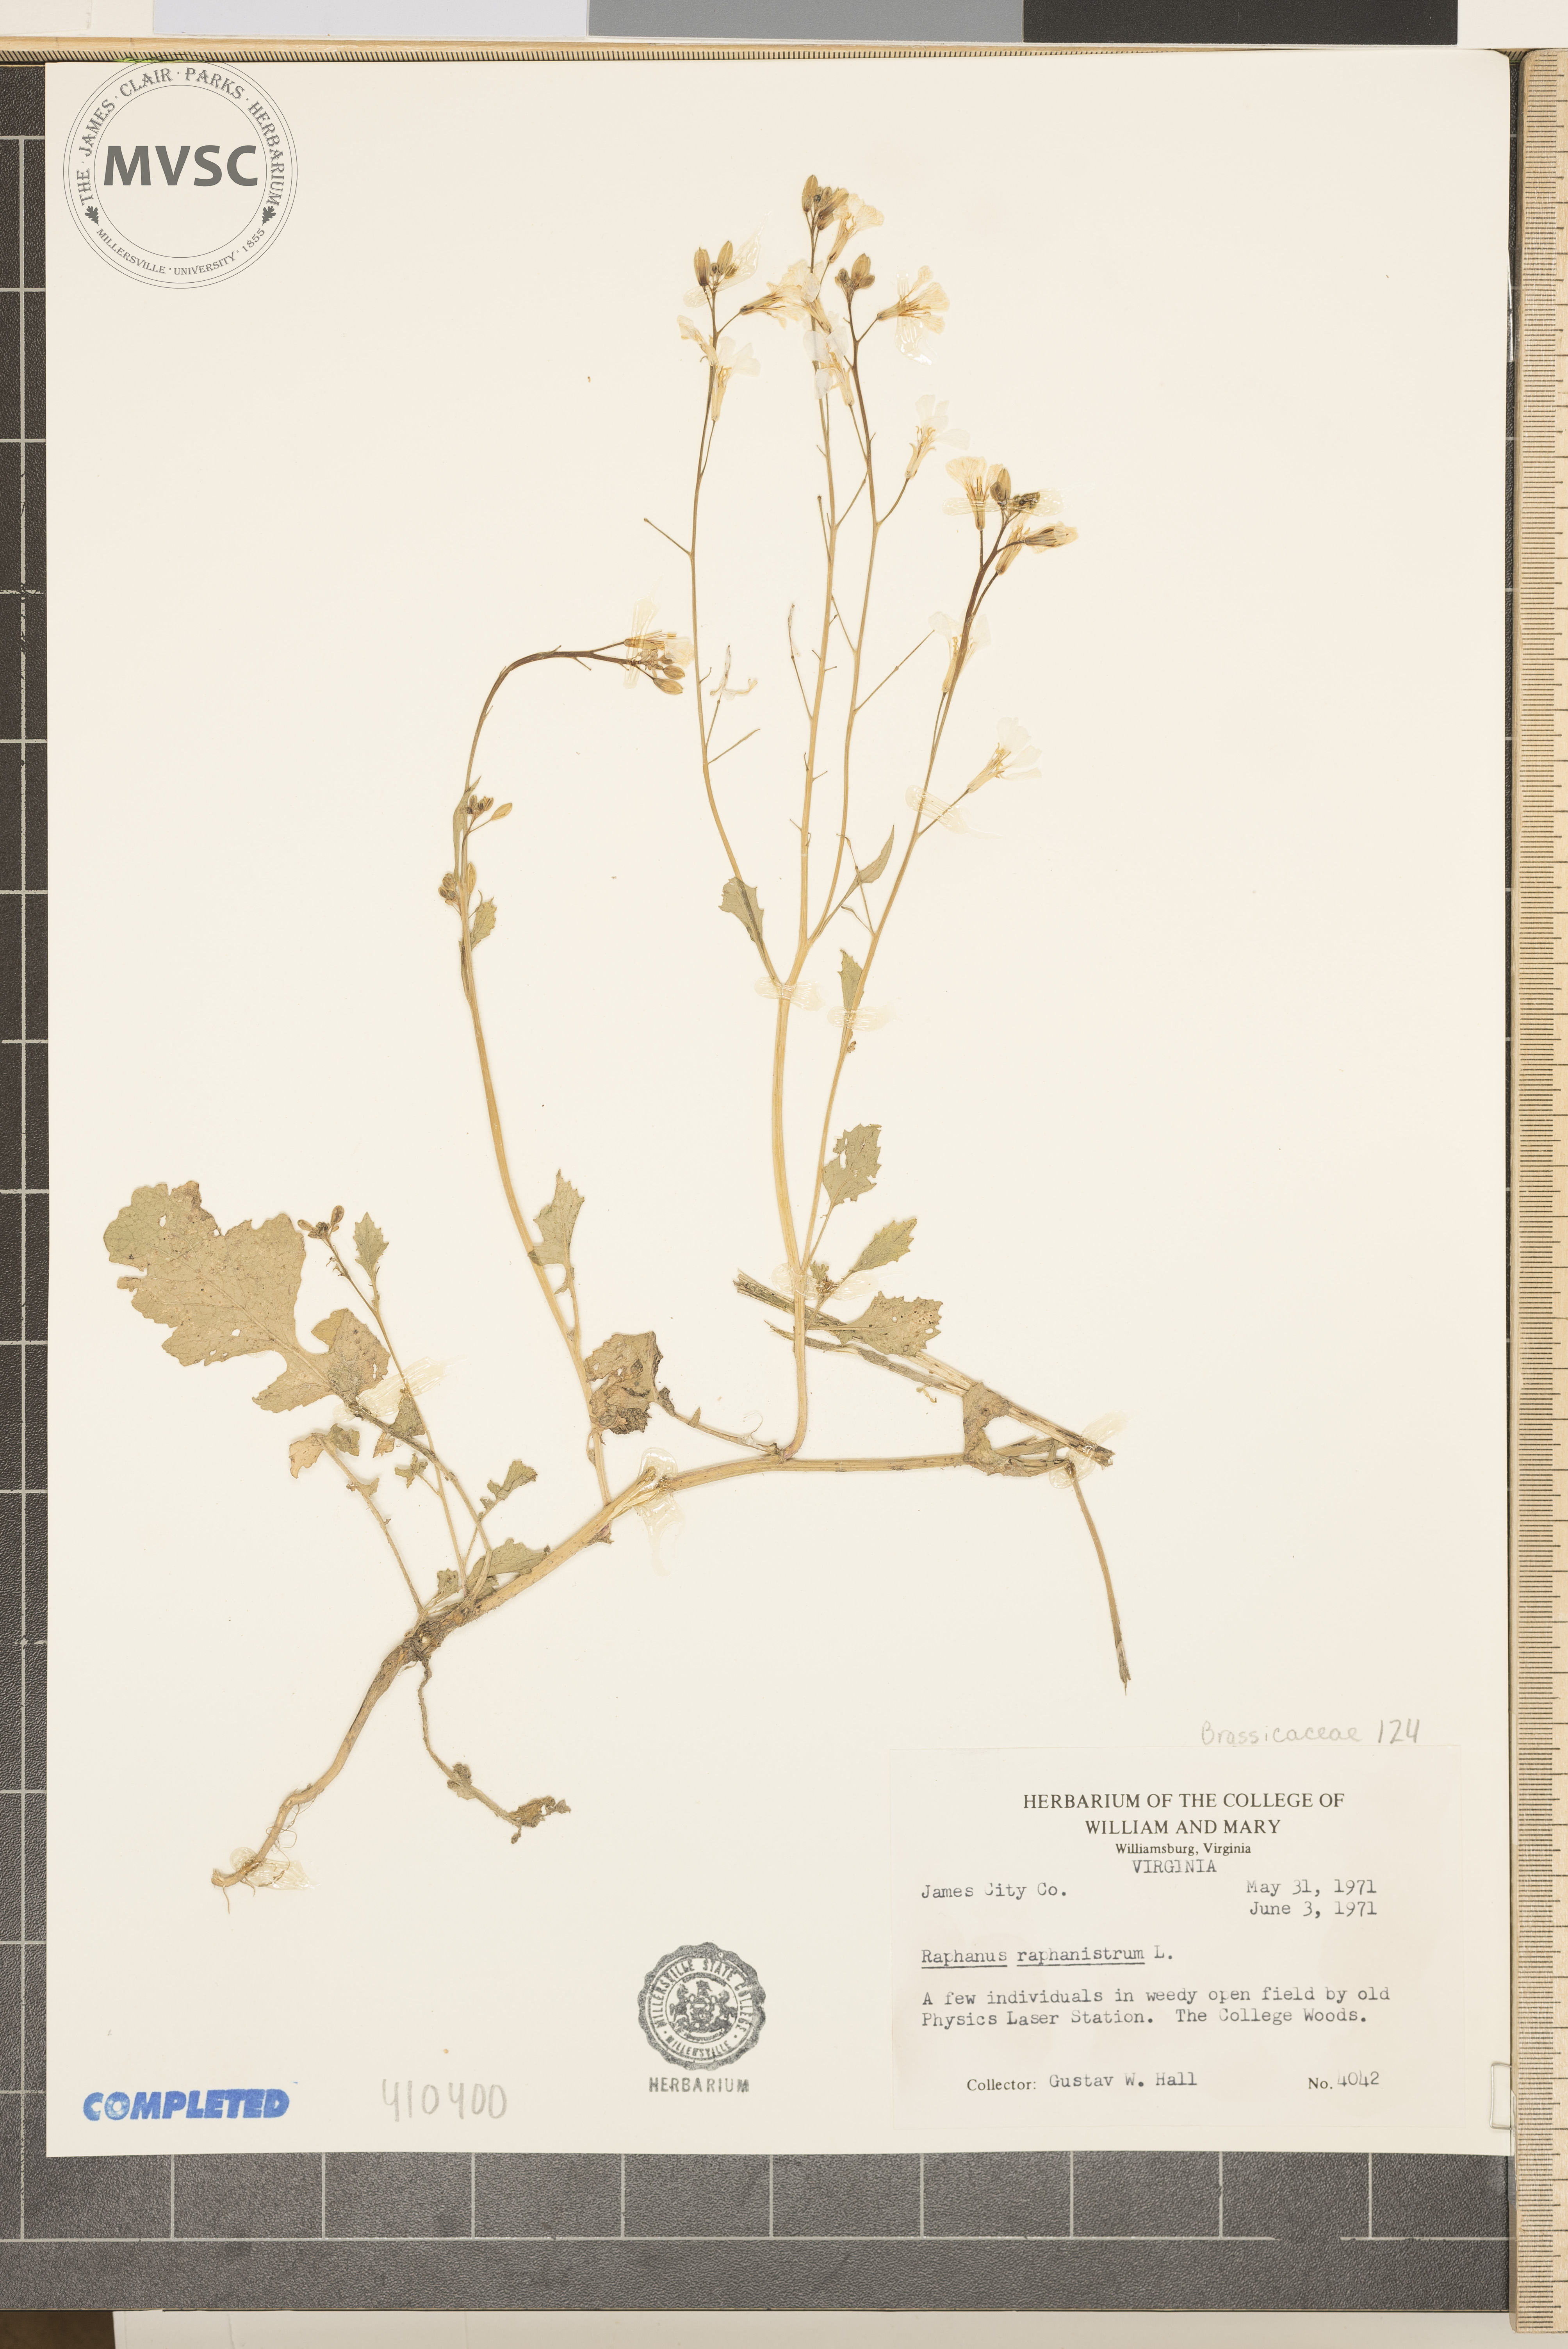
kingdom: Plantae
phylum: Tracheophyta
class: Magnoliopsida
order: Brassicales
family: Brassicaceae
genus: Raphanus
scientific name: Raphanus raphanistrum
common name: Wild Radish
